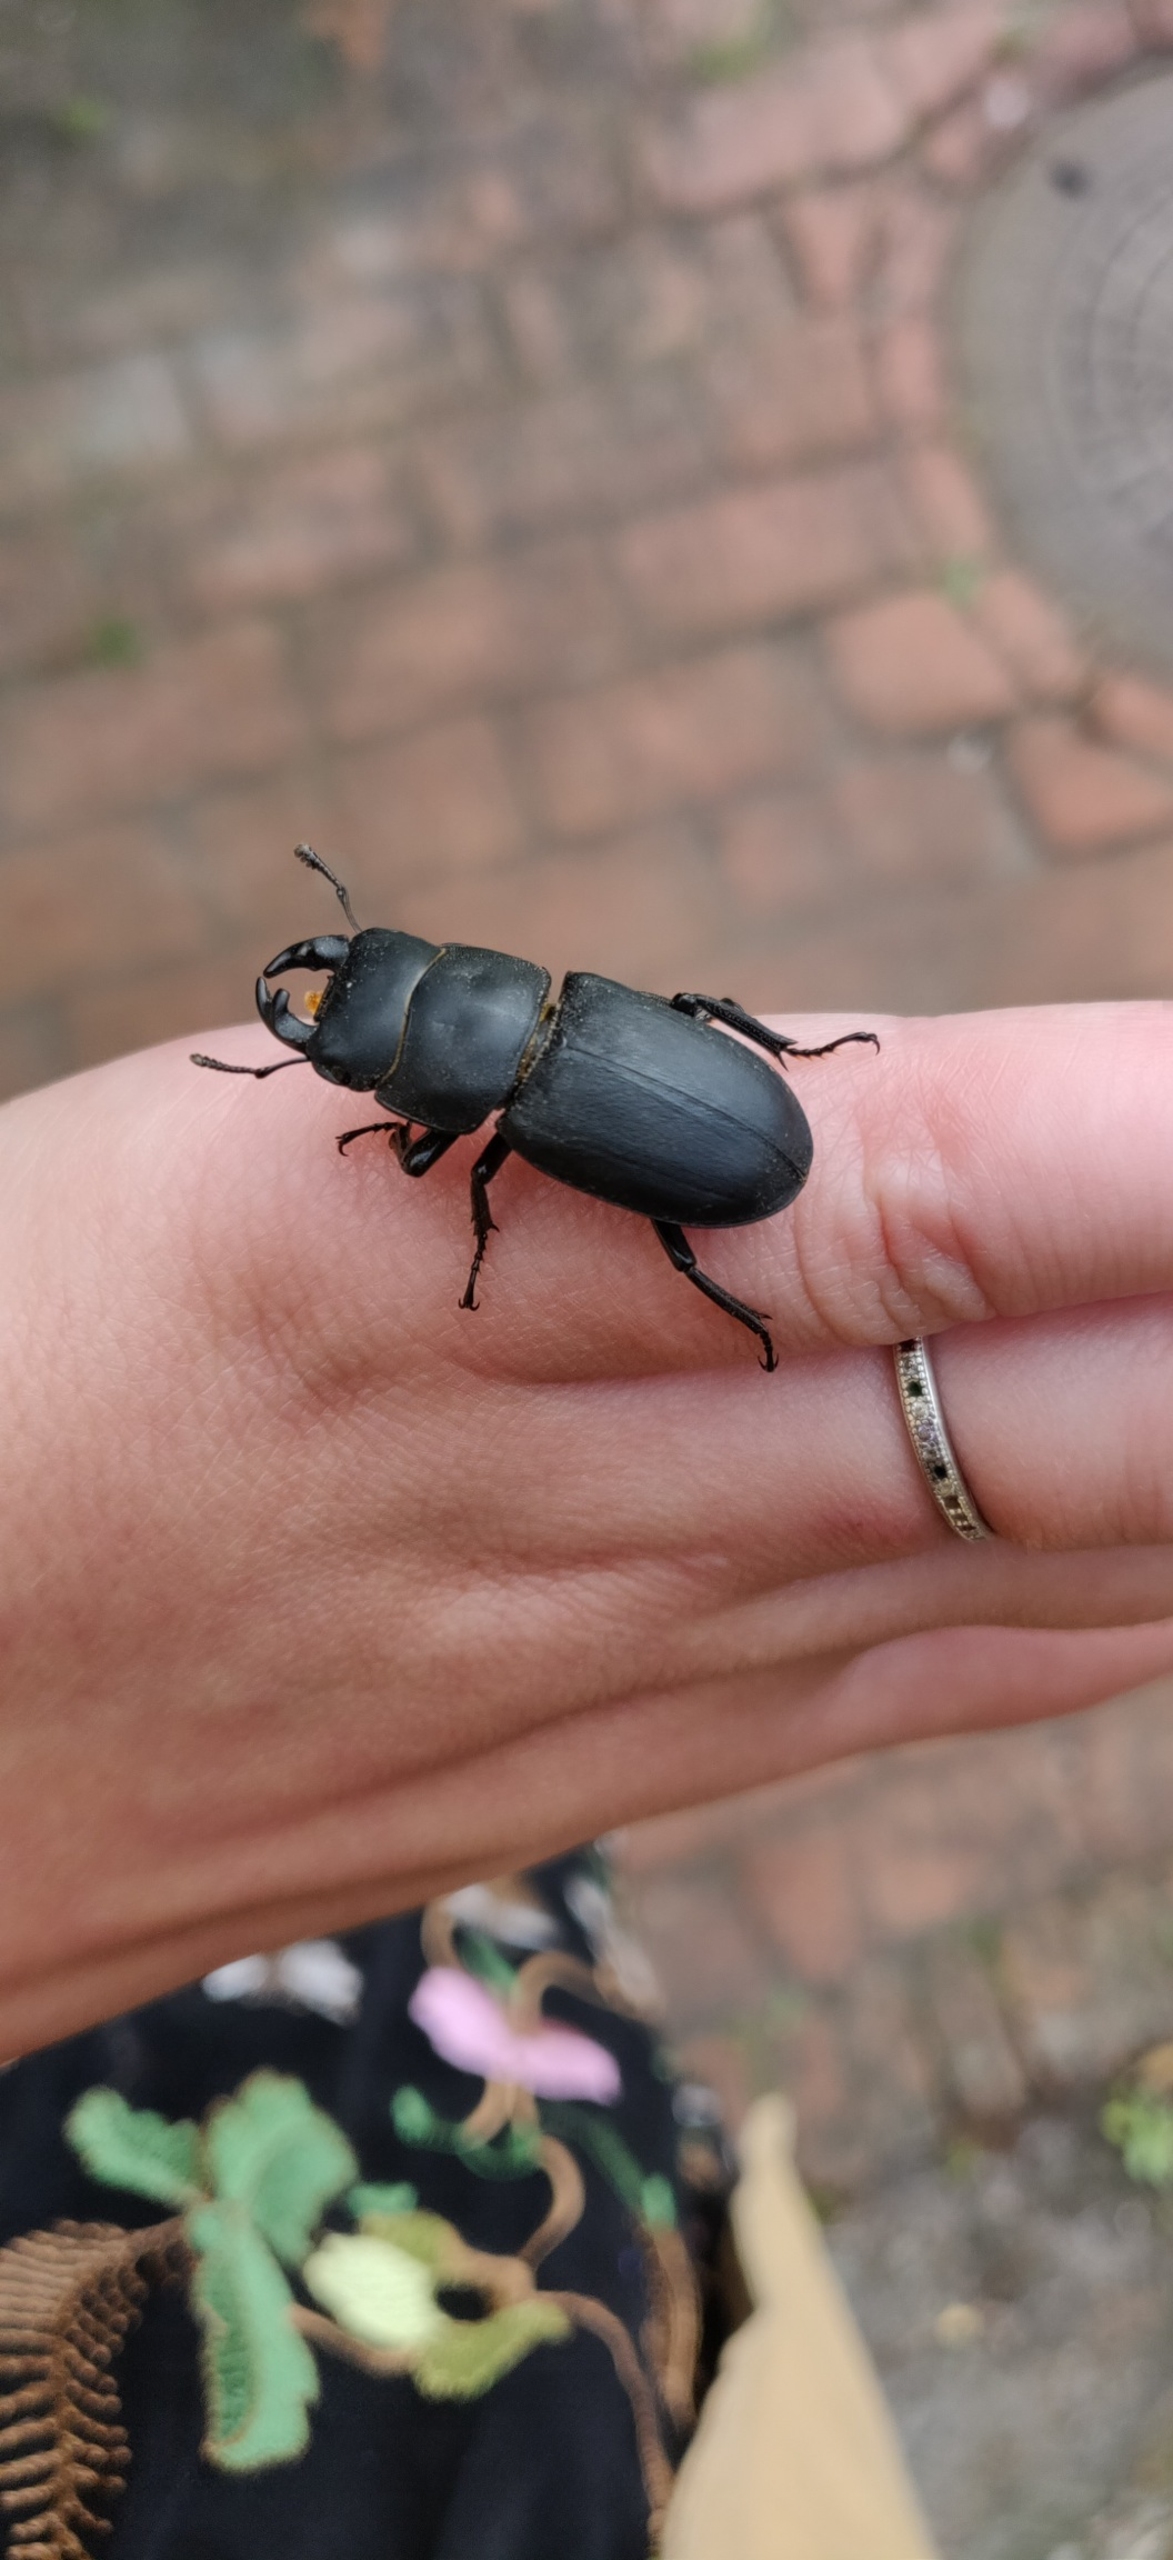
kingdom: Animalia
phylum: Arthropoda
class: Insecta
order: Coleoptera
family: Lucanidae
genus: Dorcus
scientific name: Dorcus parallelipipedus
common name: Bøghjort
